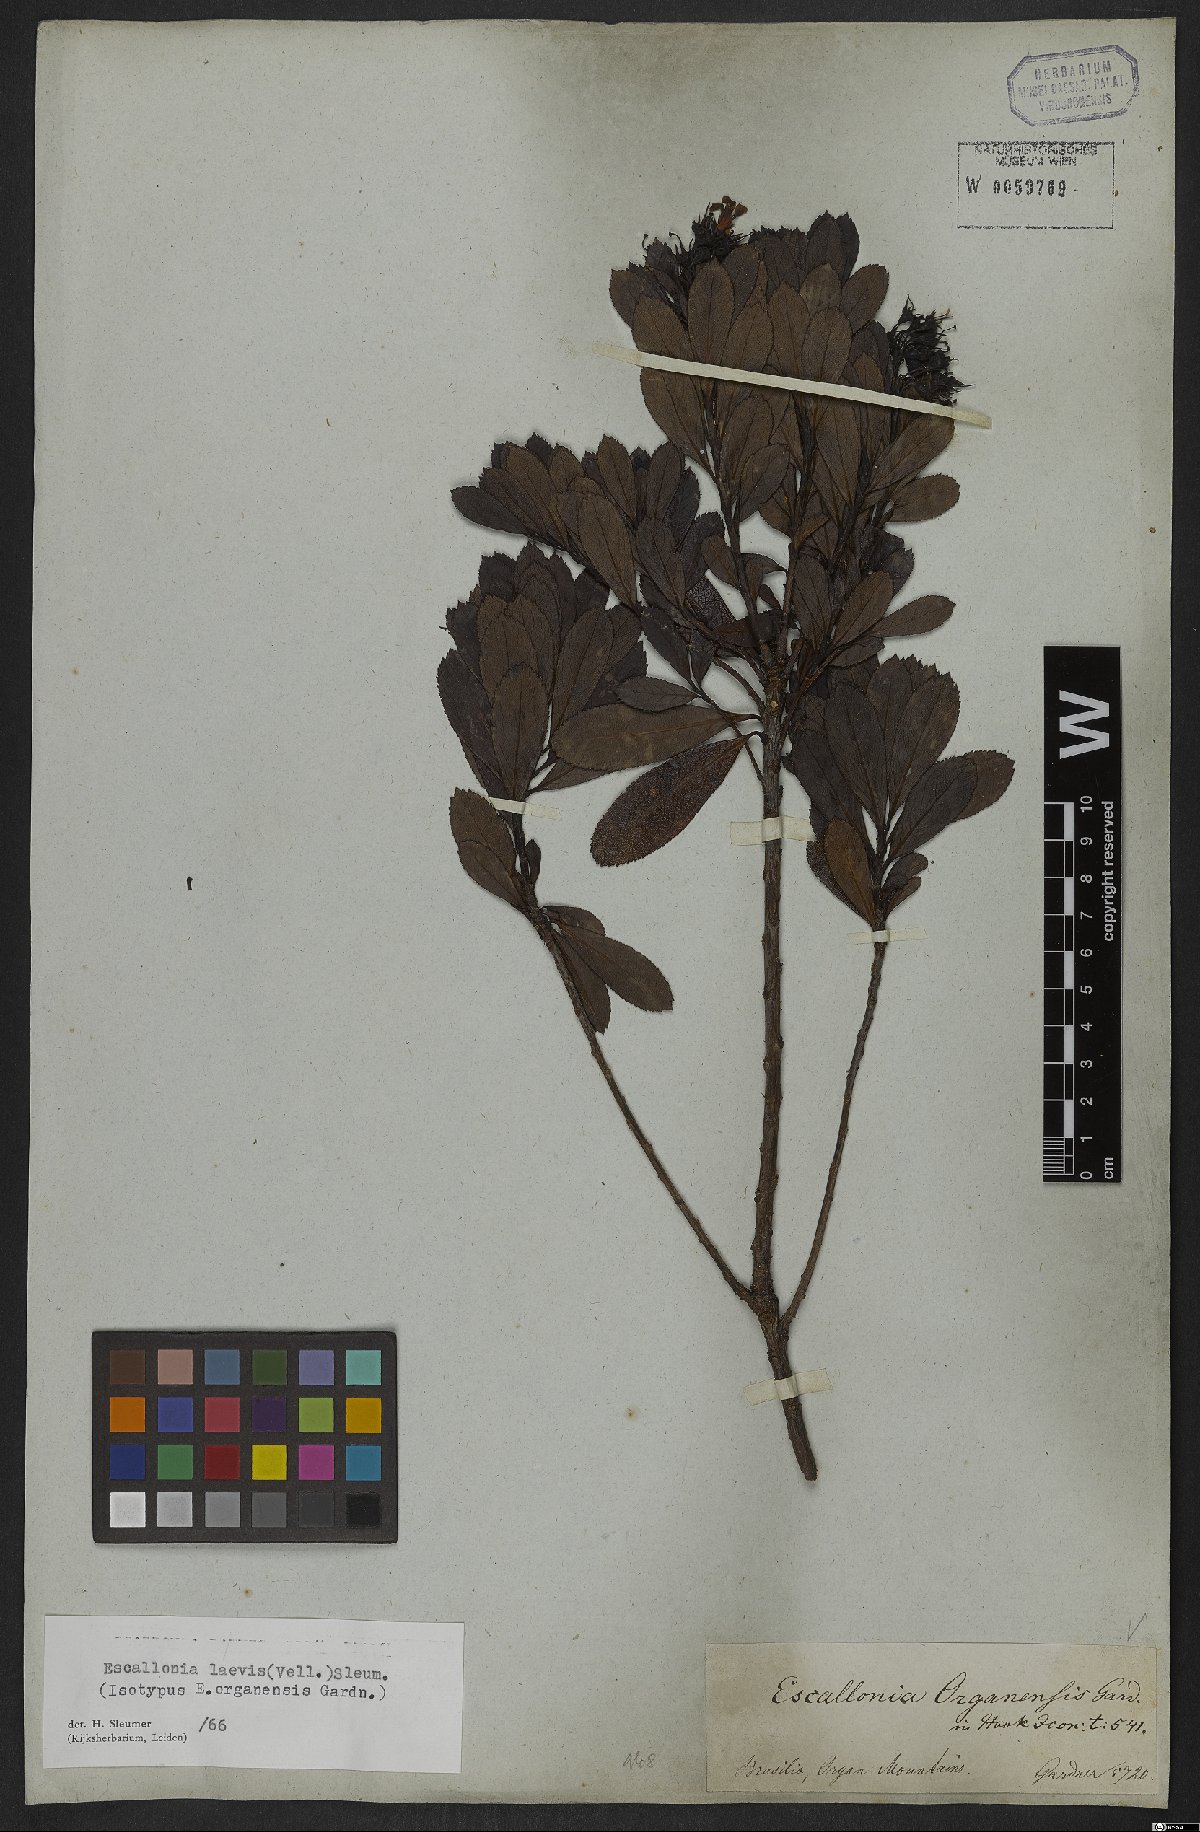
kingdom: Plantae
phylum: Tracheophyta
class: Magnoliopsida
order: Escalloniales
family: Escalloniaceae
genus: Escallonia
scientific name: Escallonia laevis
